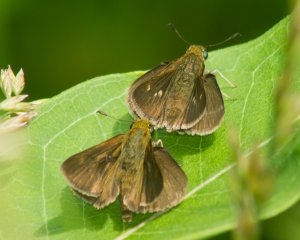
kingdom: Animalia
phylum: Arthropoda
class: Insecta
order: Lepidoptera
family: Hesperiidae
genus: Euphyes
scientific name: Euphyes vestris
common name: Dun Skipper
